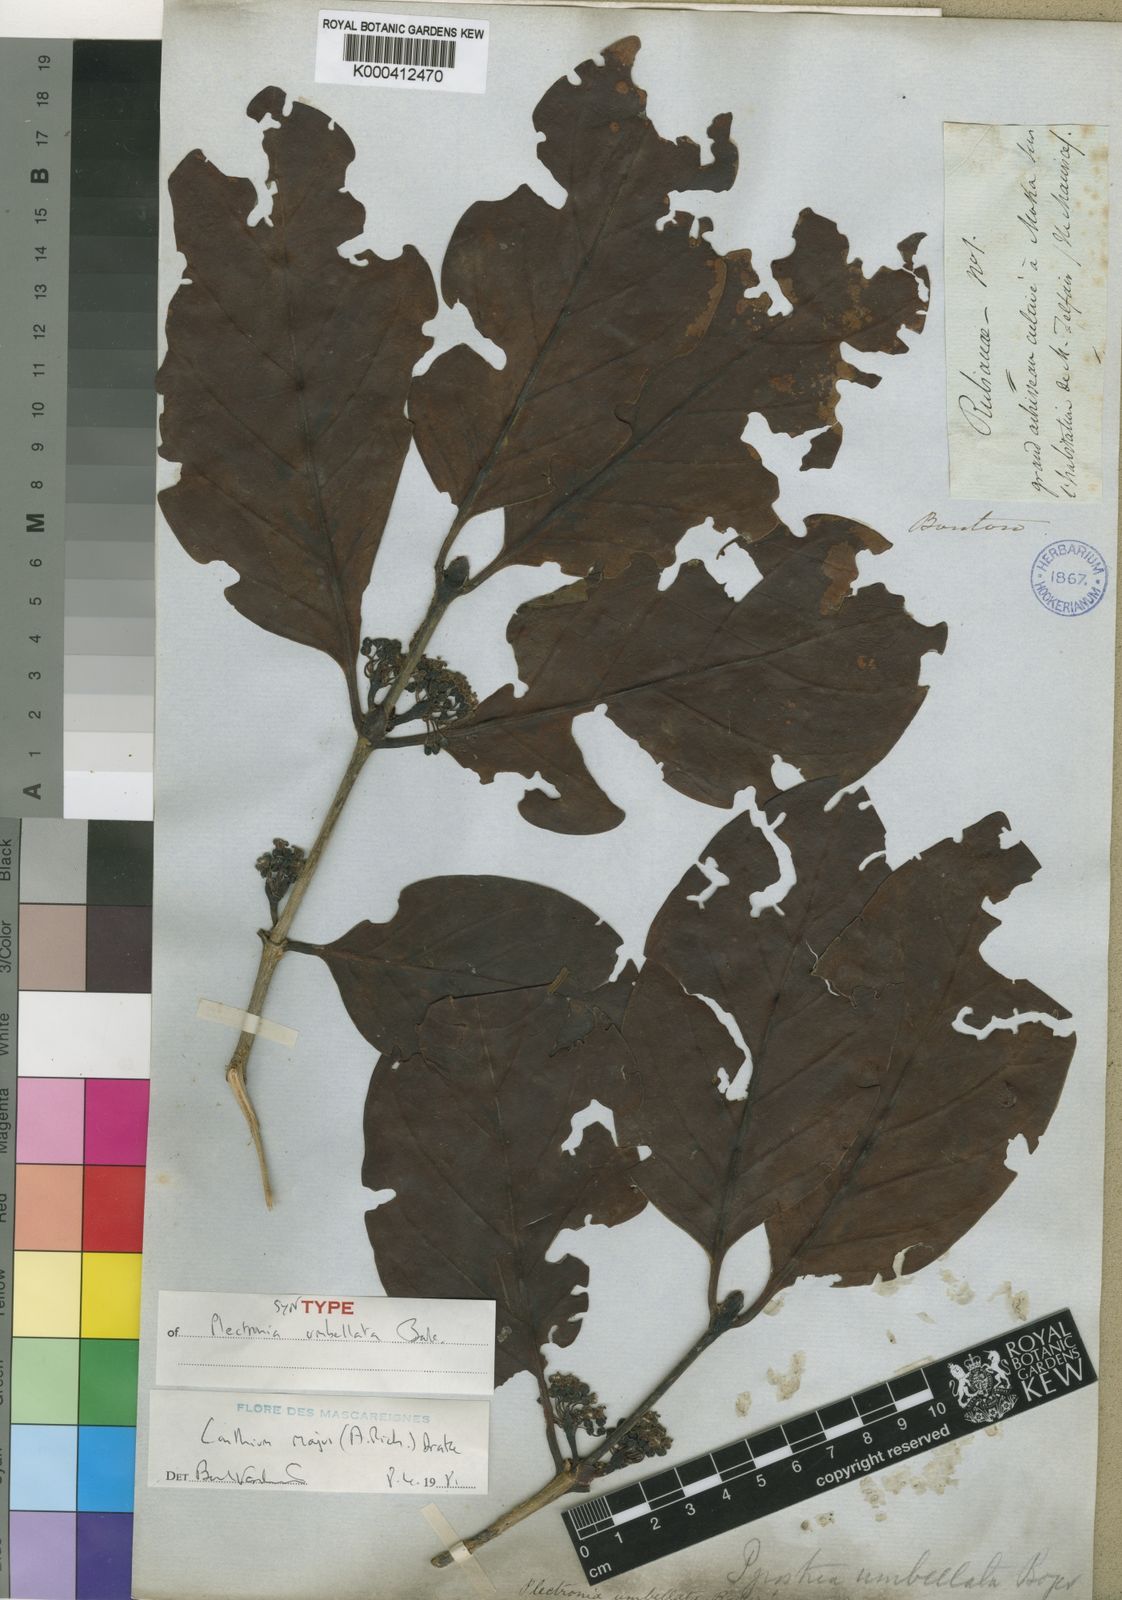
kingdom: Plantae
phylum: Tracheophyta
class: Magnoliopsida
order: Gentianales
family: Rubiaceae
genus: Pyrostria
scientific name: Pyrostria
